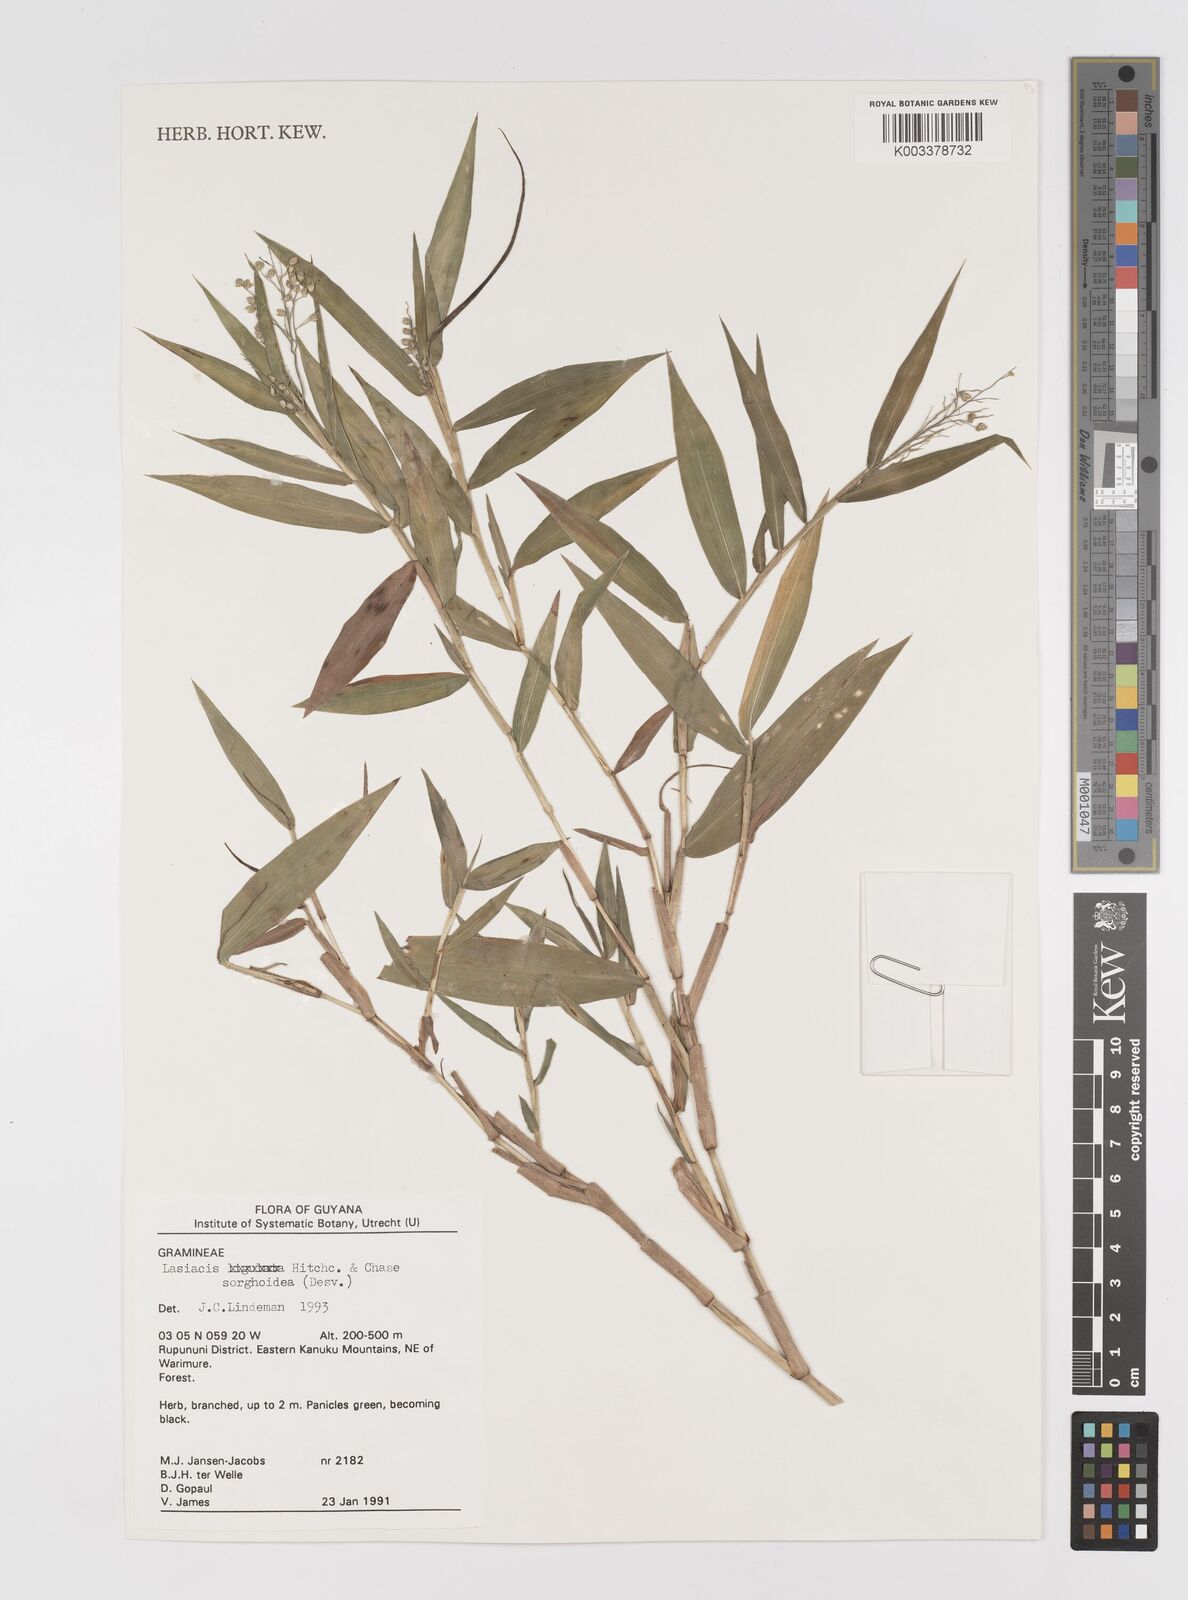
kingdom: Plantae
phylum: Tracheophyta
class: Liliopsida
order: Poales
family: Poaceae
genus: Lasiacis
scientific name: Lasiacis maculata
